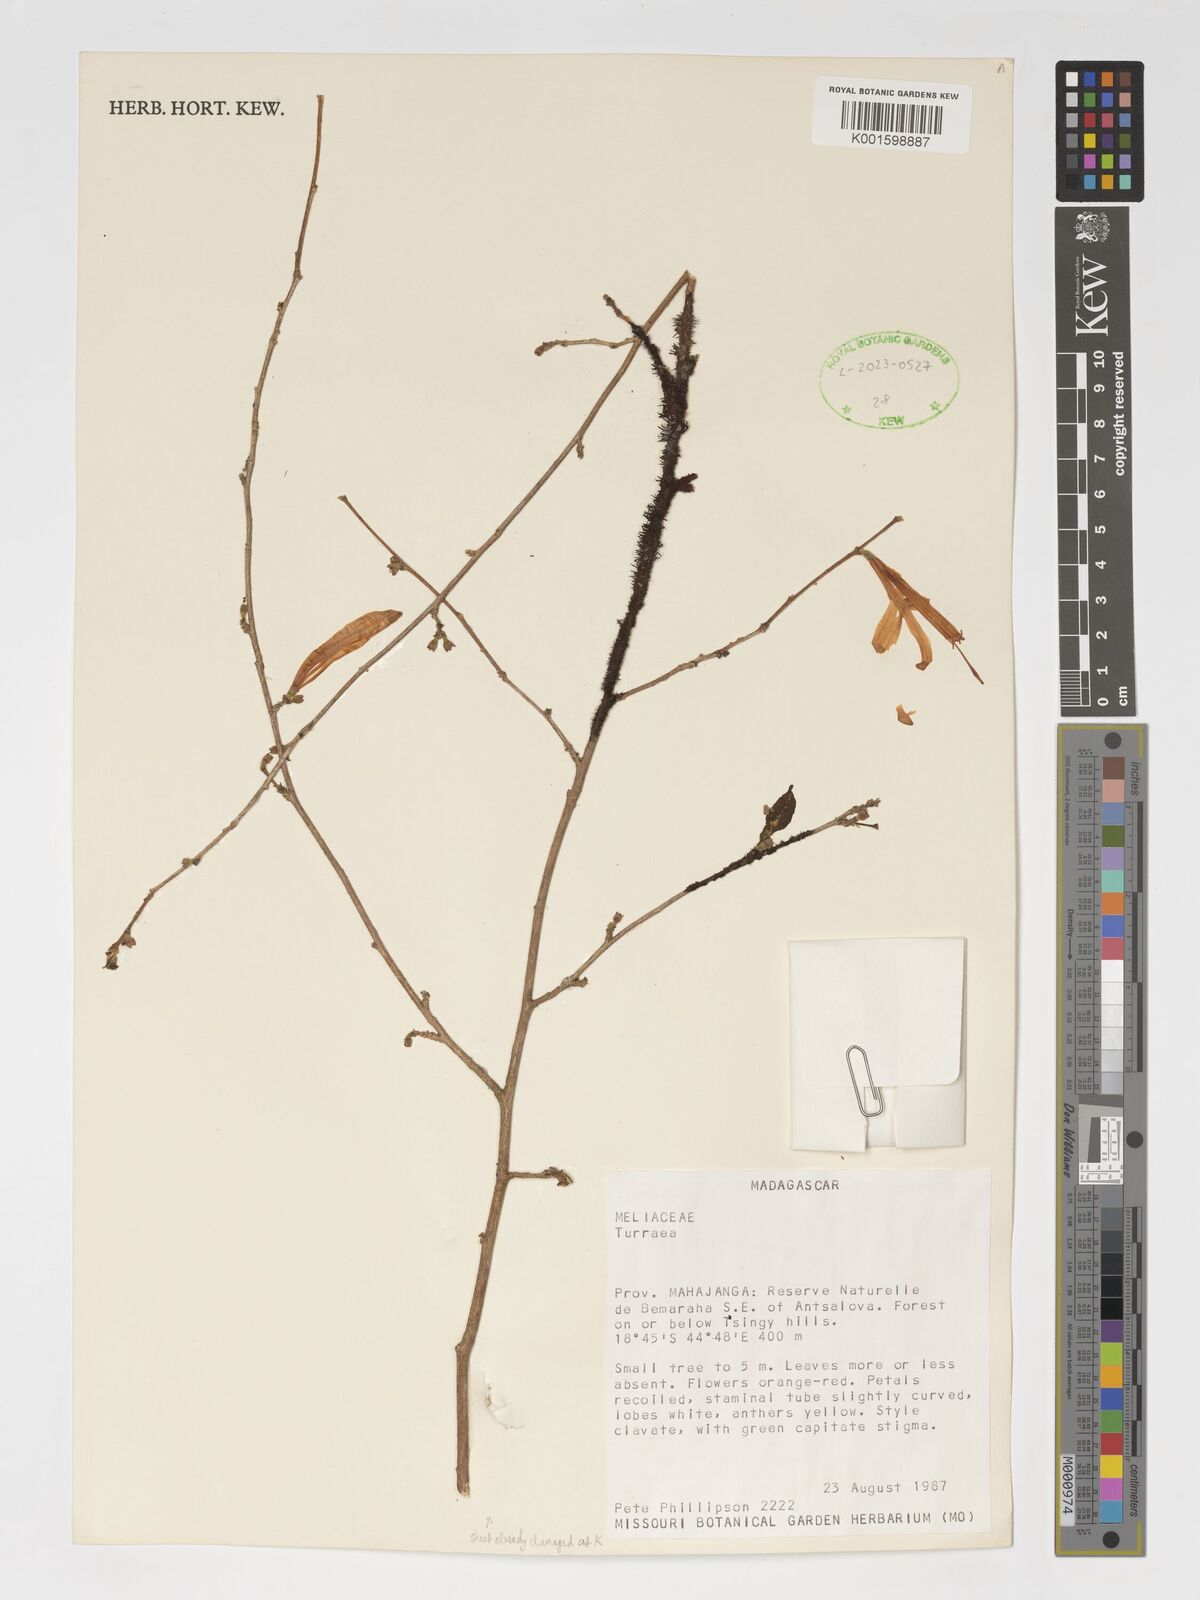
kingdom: Plantae
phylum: Tracheophyta
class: Magnoliopsida
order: Sapindales
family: Meliaceae
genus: Turraea
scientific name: Turraea
